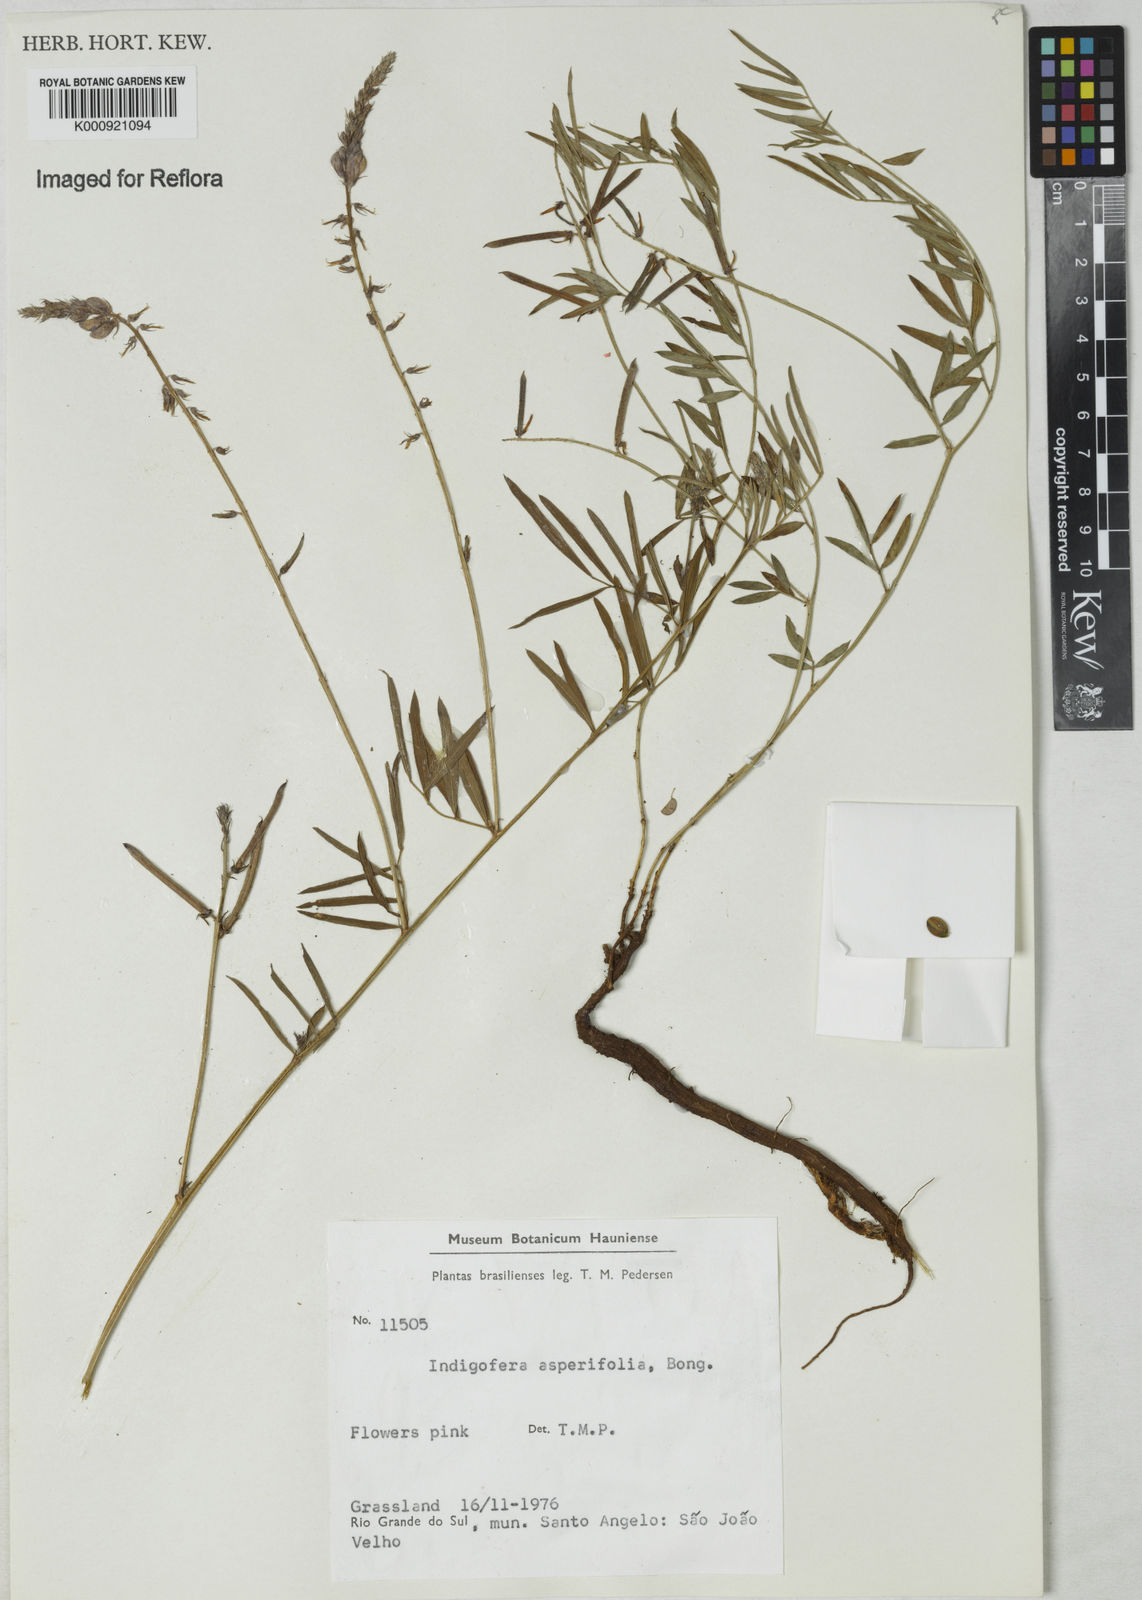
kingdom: Plantae
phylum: Tracheophyta
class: Magnoliopsida
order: Fabales
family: Fabaceae
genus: Indigofera
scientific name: Indigofera
